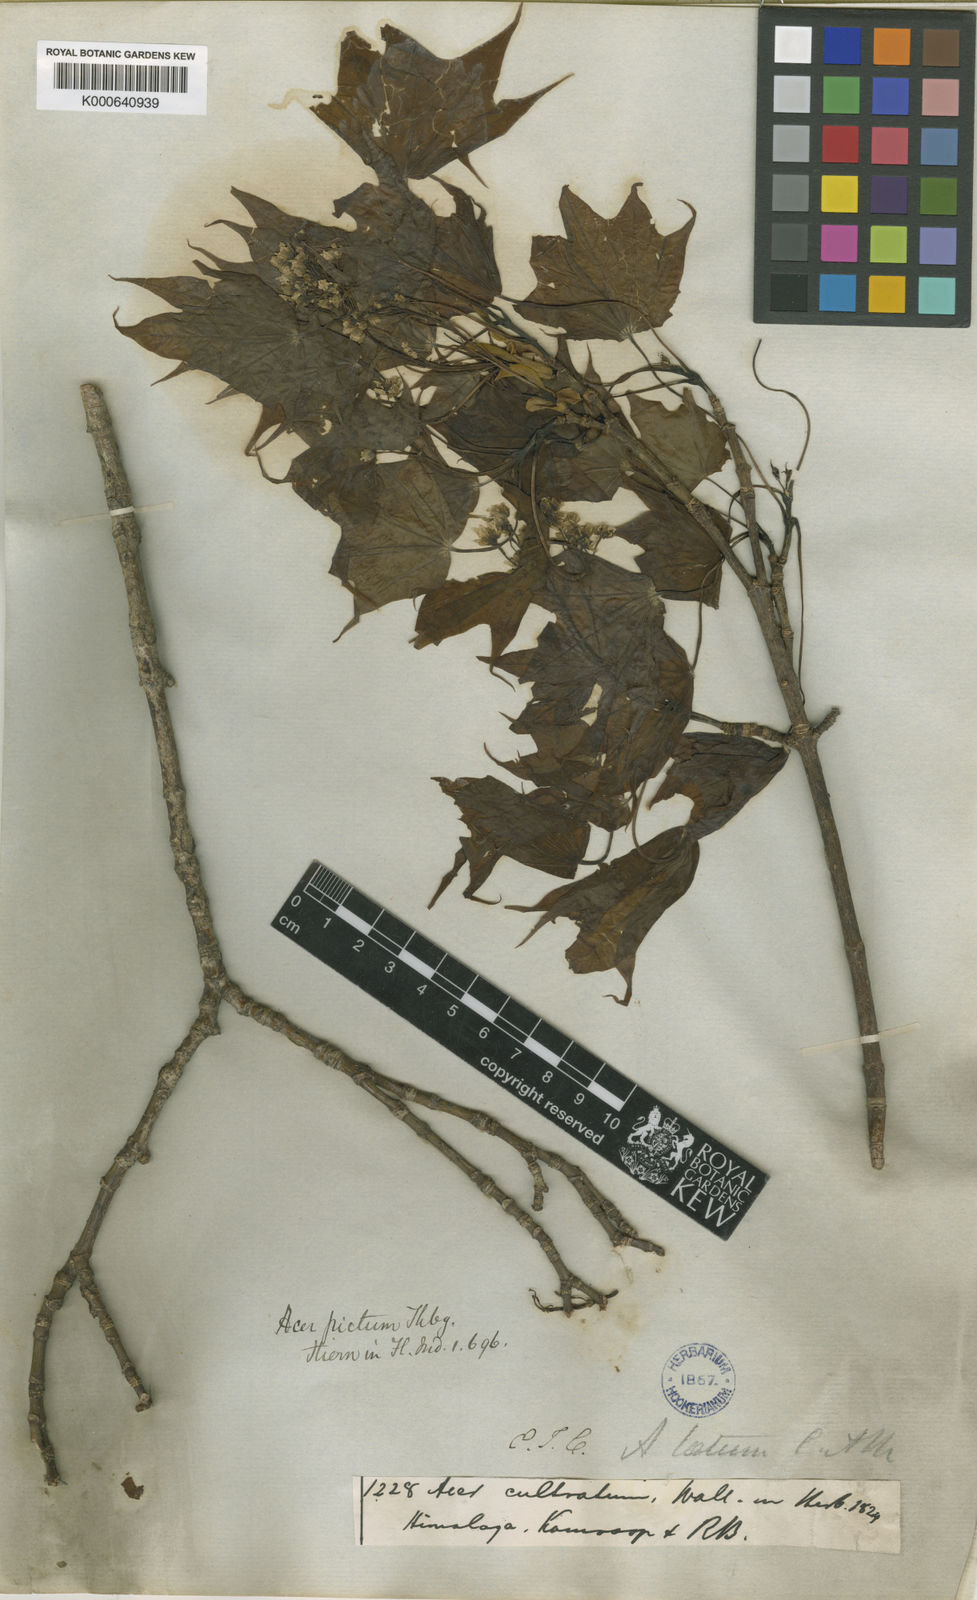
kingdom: Plantae
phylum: Tracheophyta
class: Magnoliopsida
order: Sapindales
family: Sapindaceae
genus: Acer
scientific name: Acer cappadocicum
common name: Cappadocian maple
